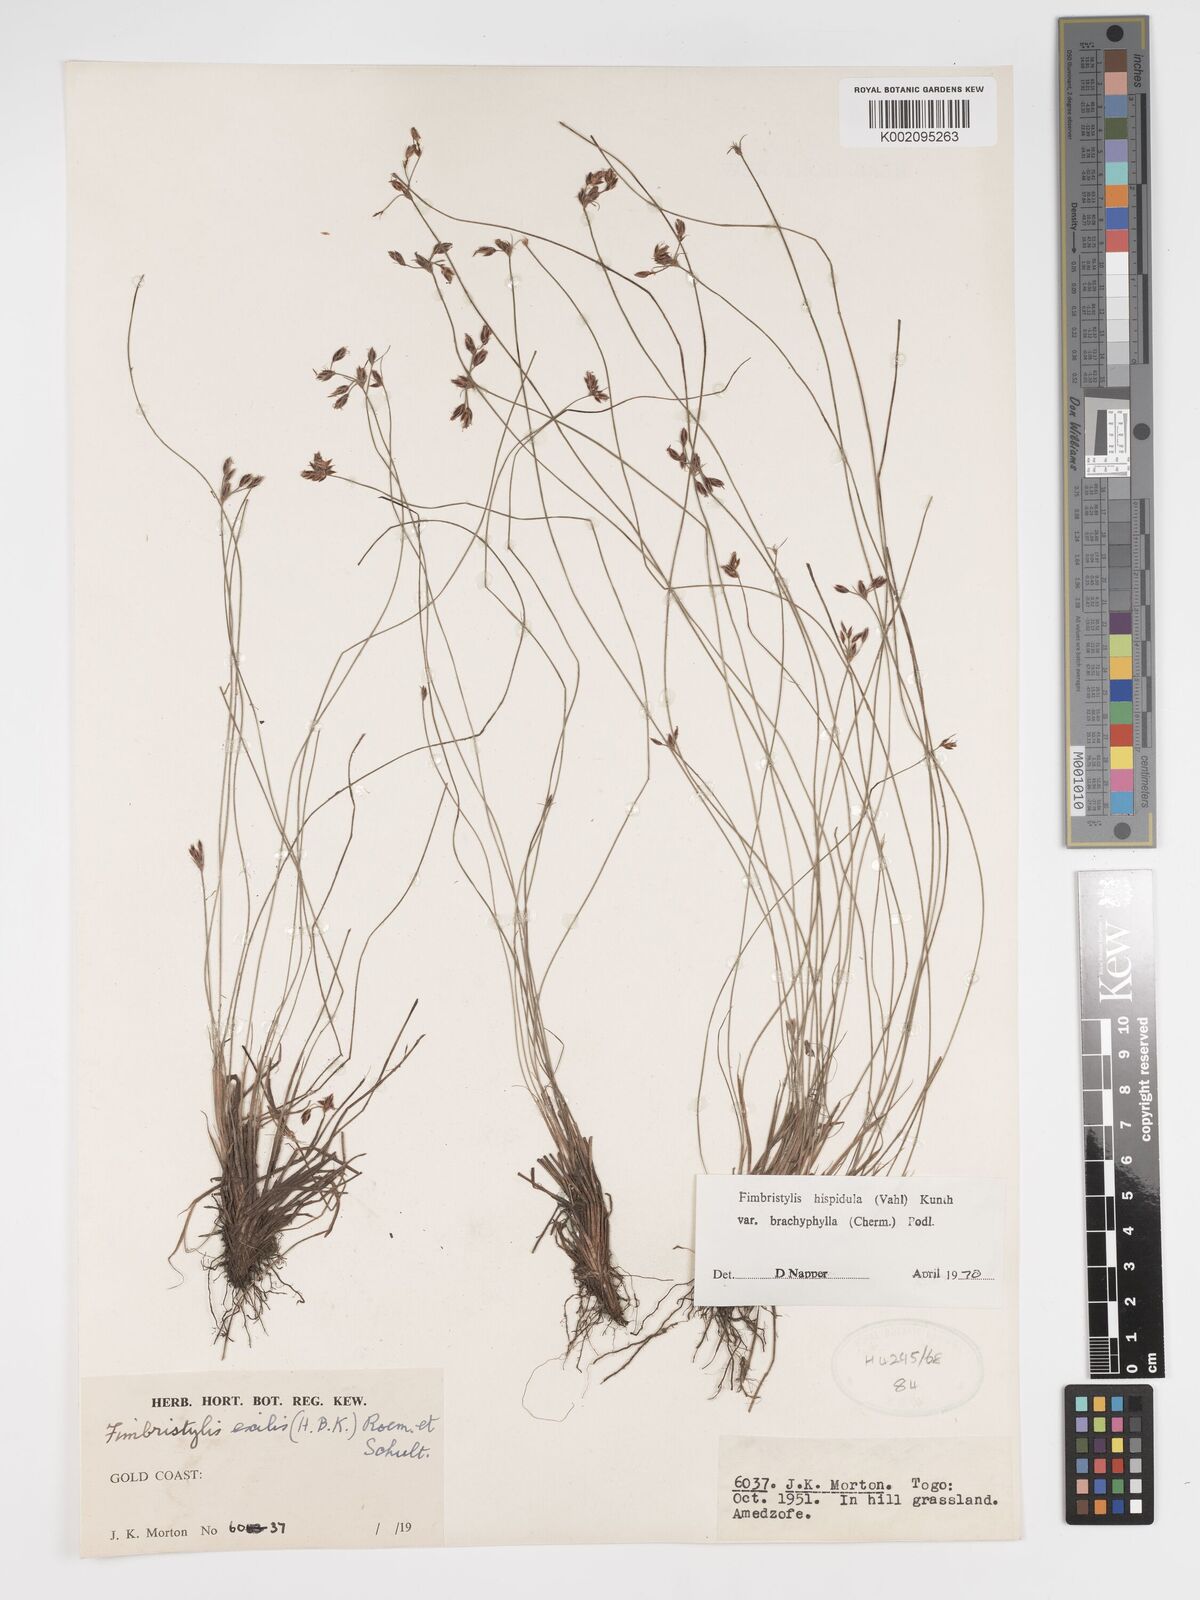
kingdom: Plantae
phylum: Tracheophyta
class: Liliopsida
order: Poales
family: Cyperaceae
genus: Bulbostylis
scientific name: Bulbostylis hispidula
